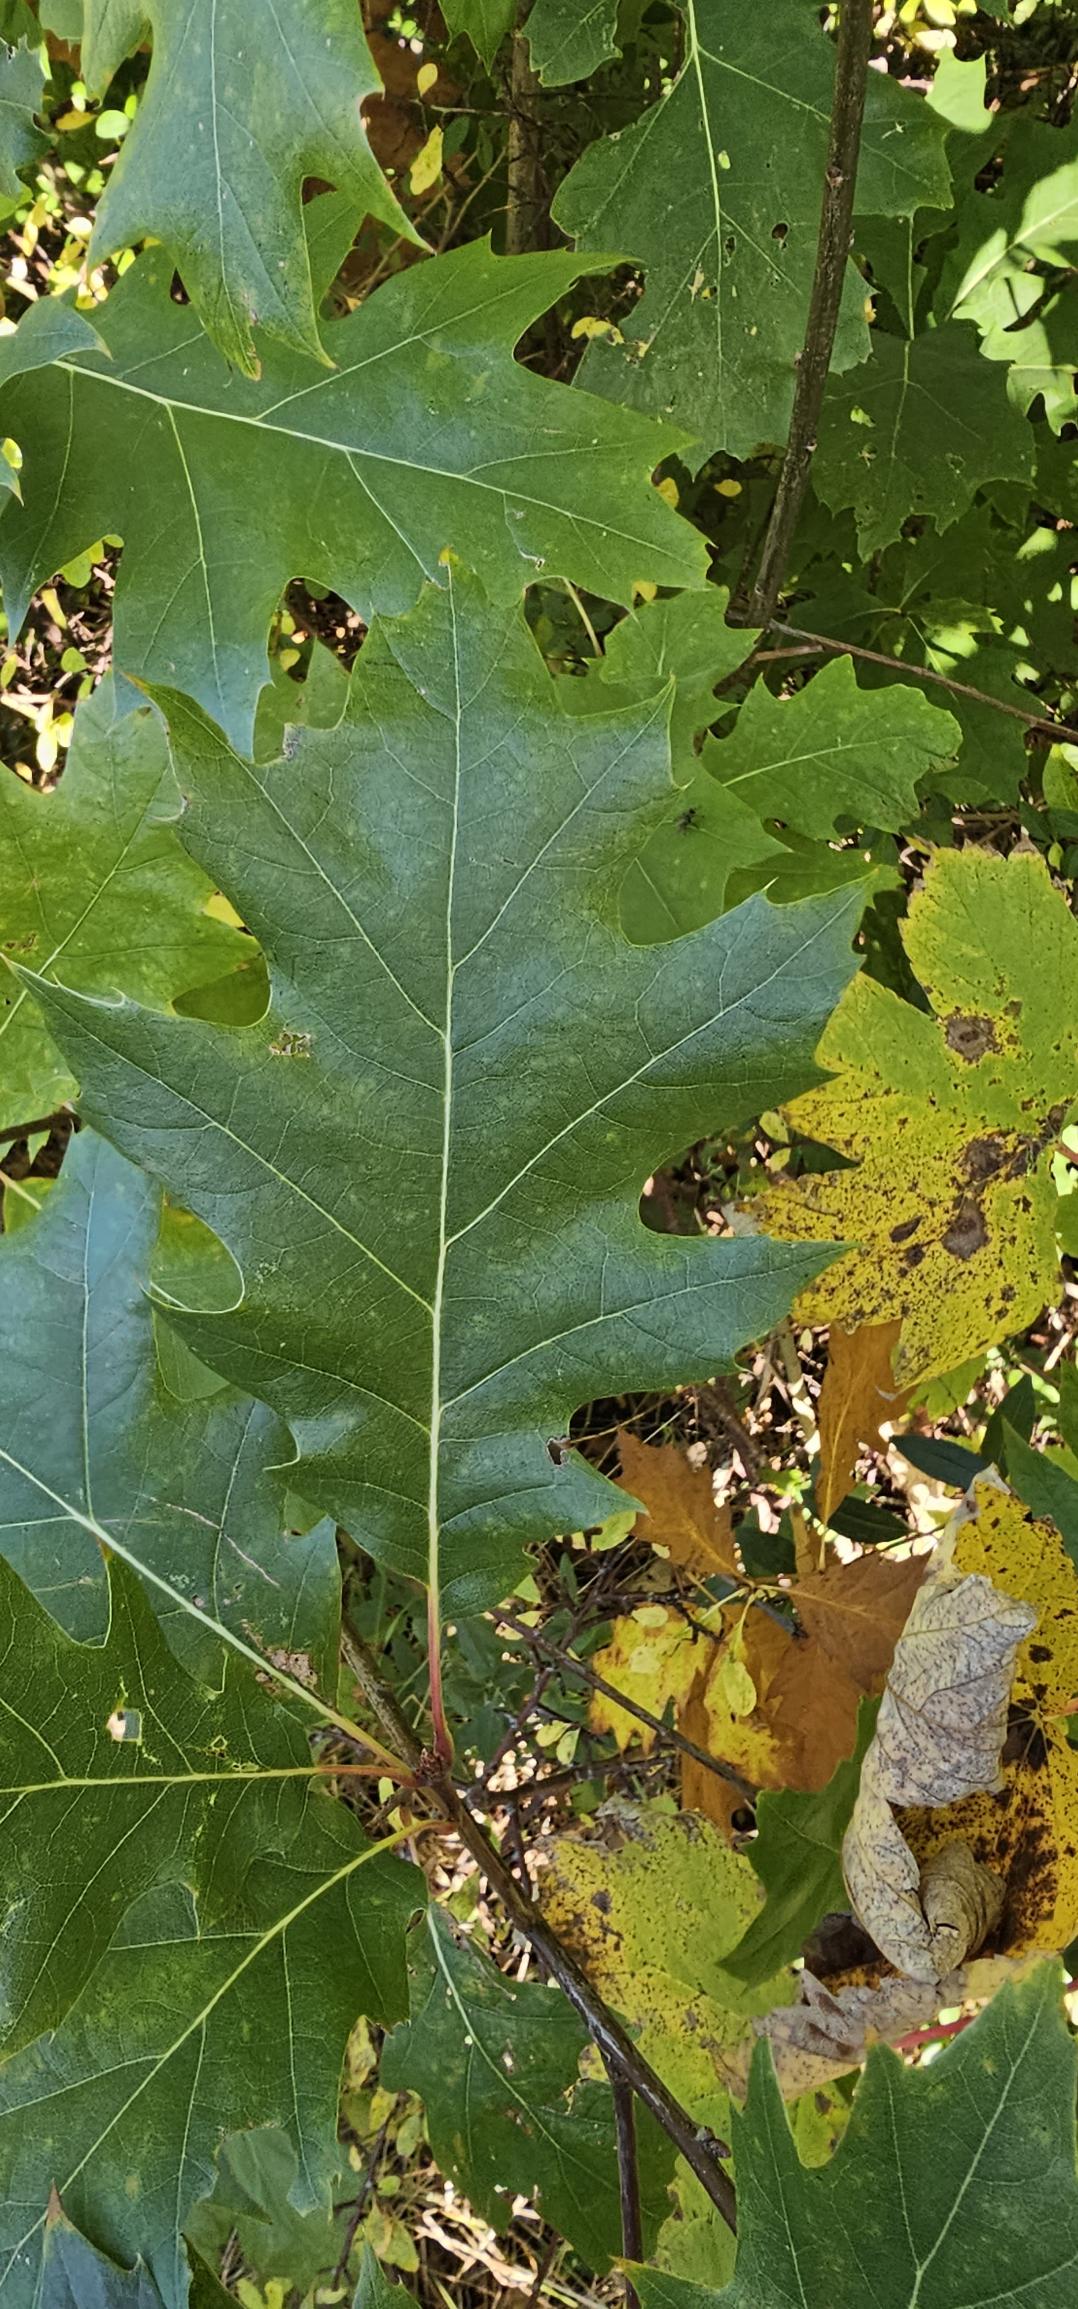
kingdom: Plantae
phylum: Tracheophyta
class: Magnoliopsida
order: Fagales
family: Fagaceae
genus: Quercus
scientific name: Quercus rubra
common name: Rød-eg
